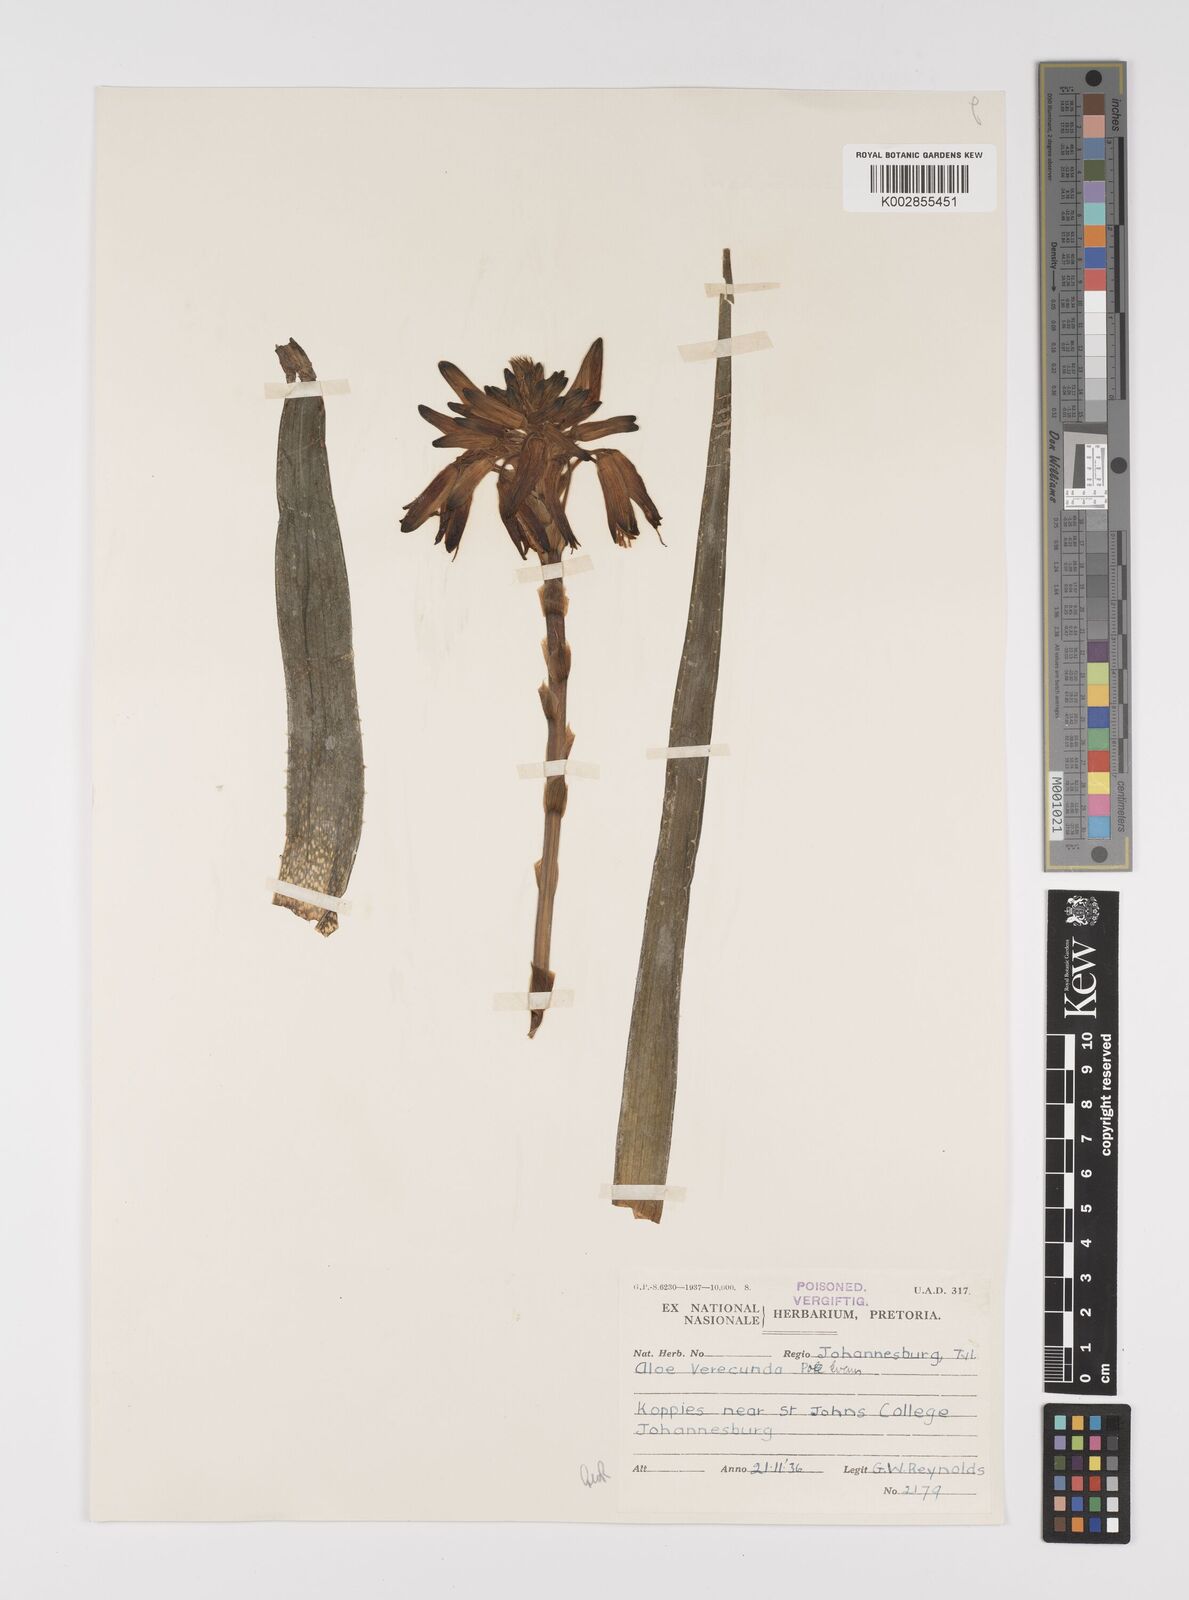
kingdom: Plantae
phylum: Tracheophyta
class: Liliopsida
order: Asparagales
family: Asphodelaceae
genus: Aloe
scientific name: Aloe verecunda
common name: Grass aloe
